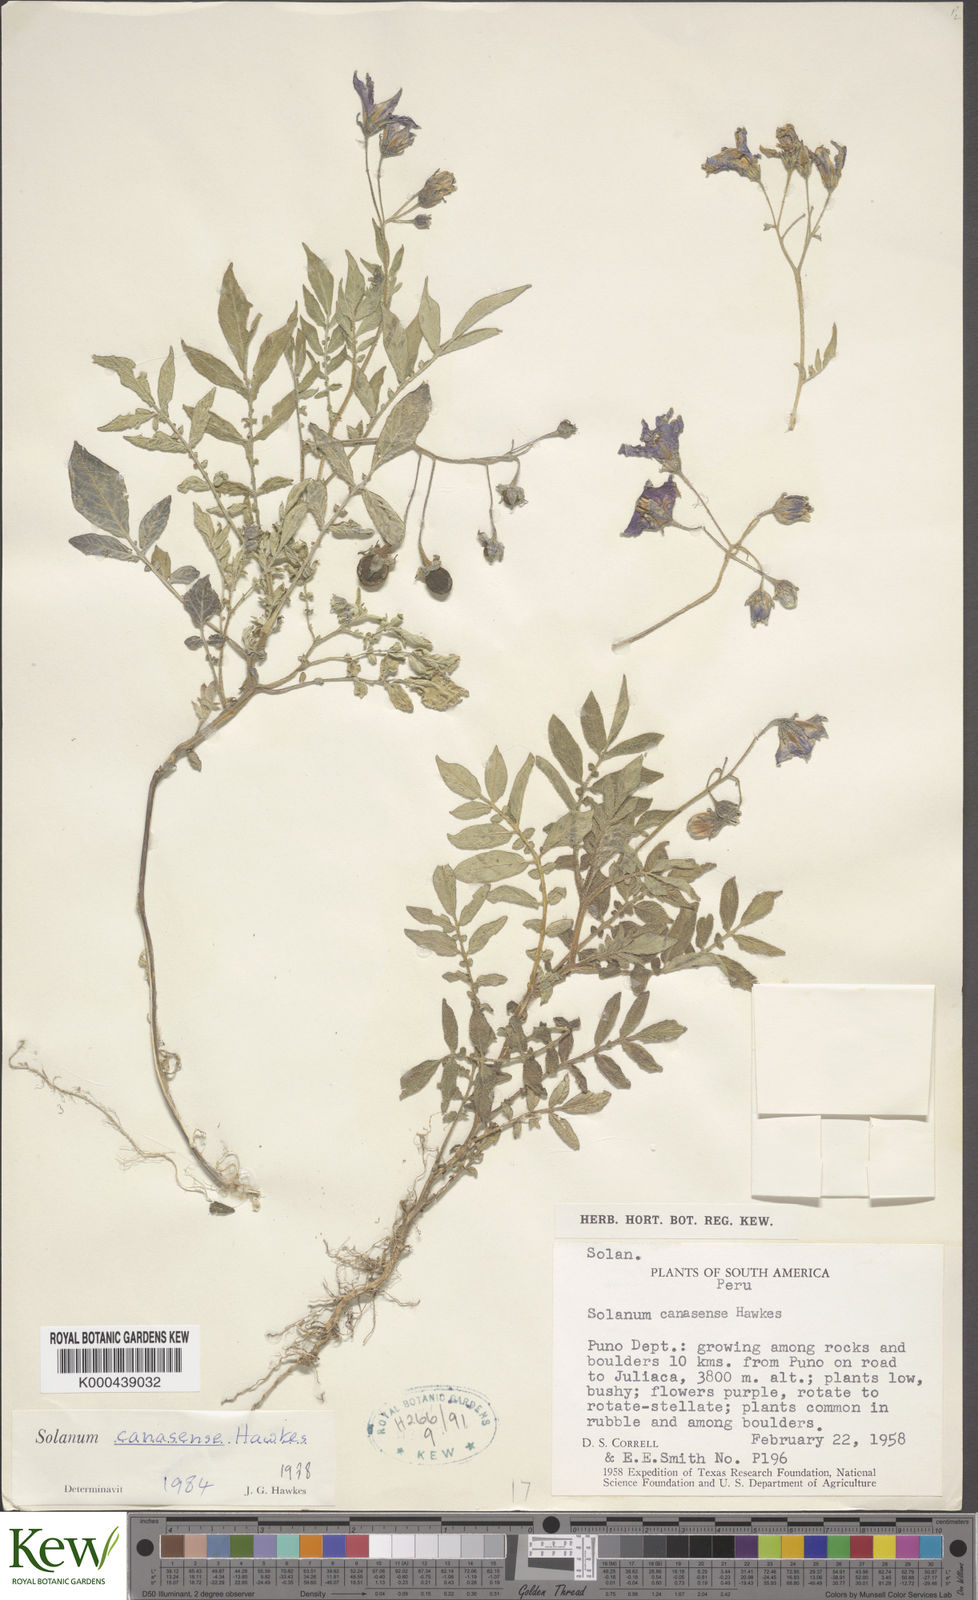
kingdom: Plantae
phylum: Tracheophyta
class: Magnoliopsida
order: Solanales
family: Solanaceae
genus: Solanum
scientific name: Solanum candolleanum
